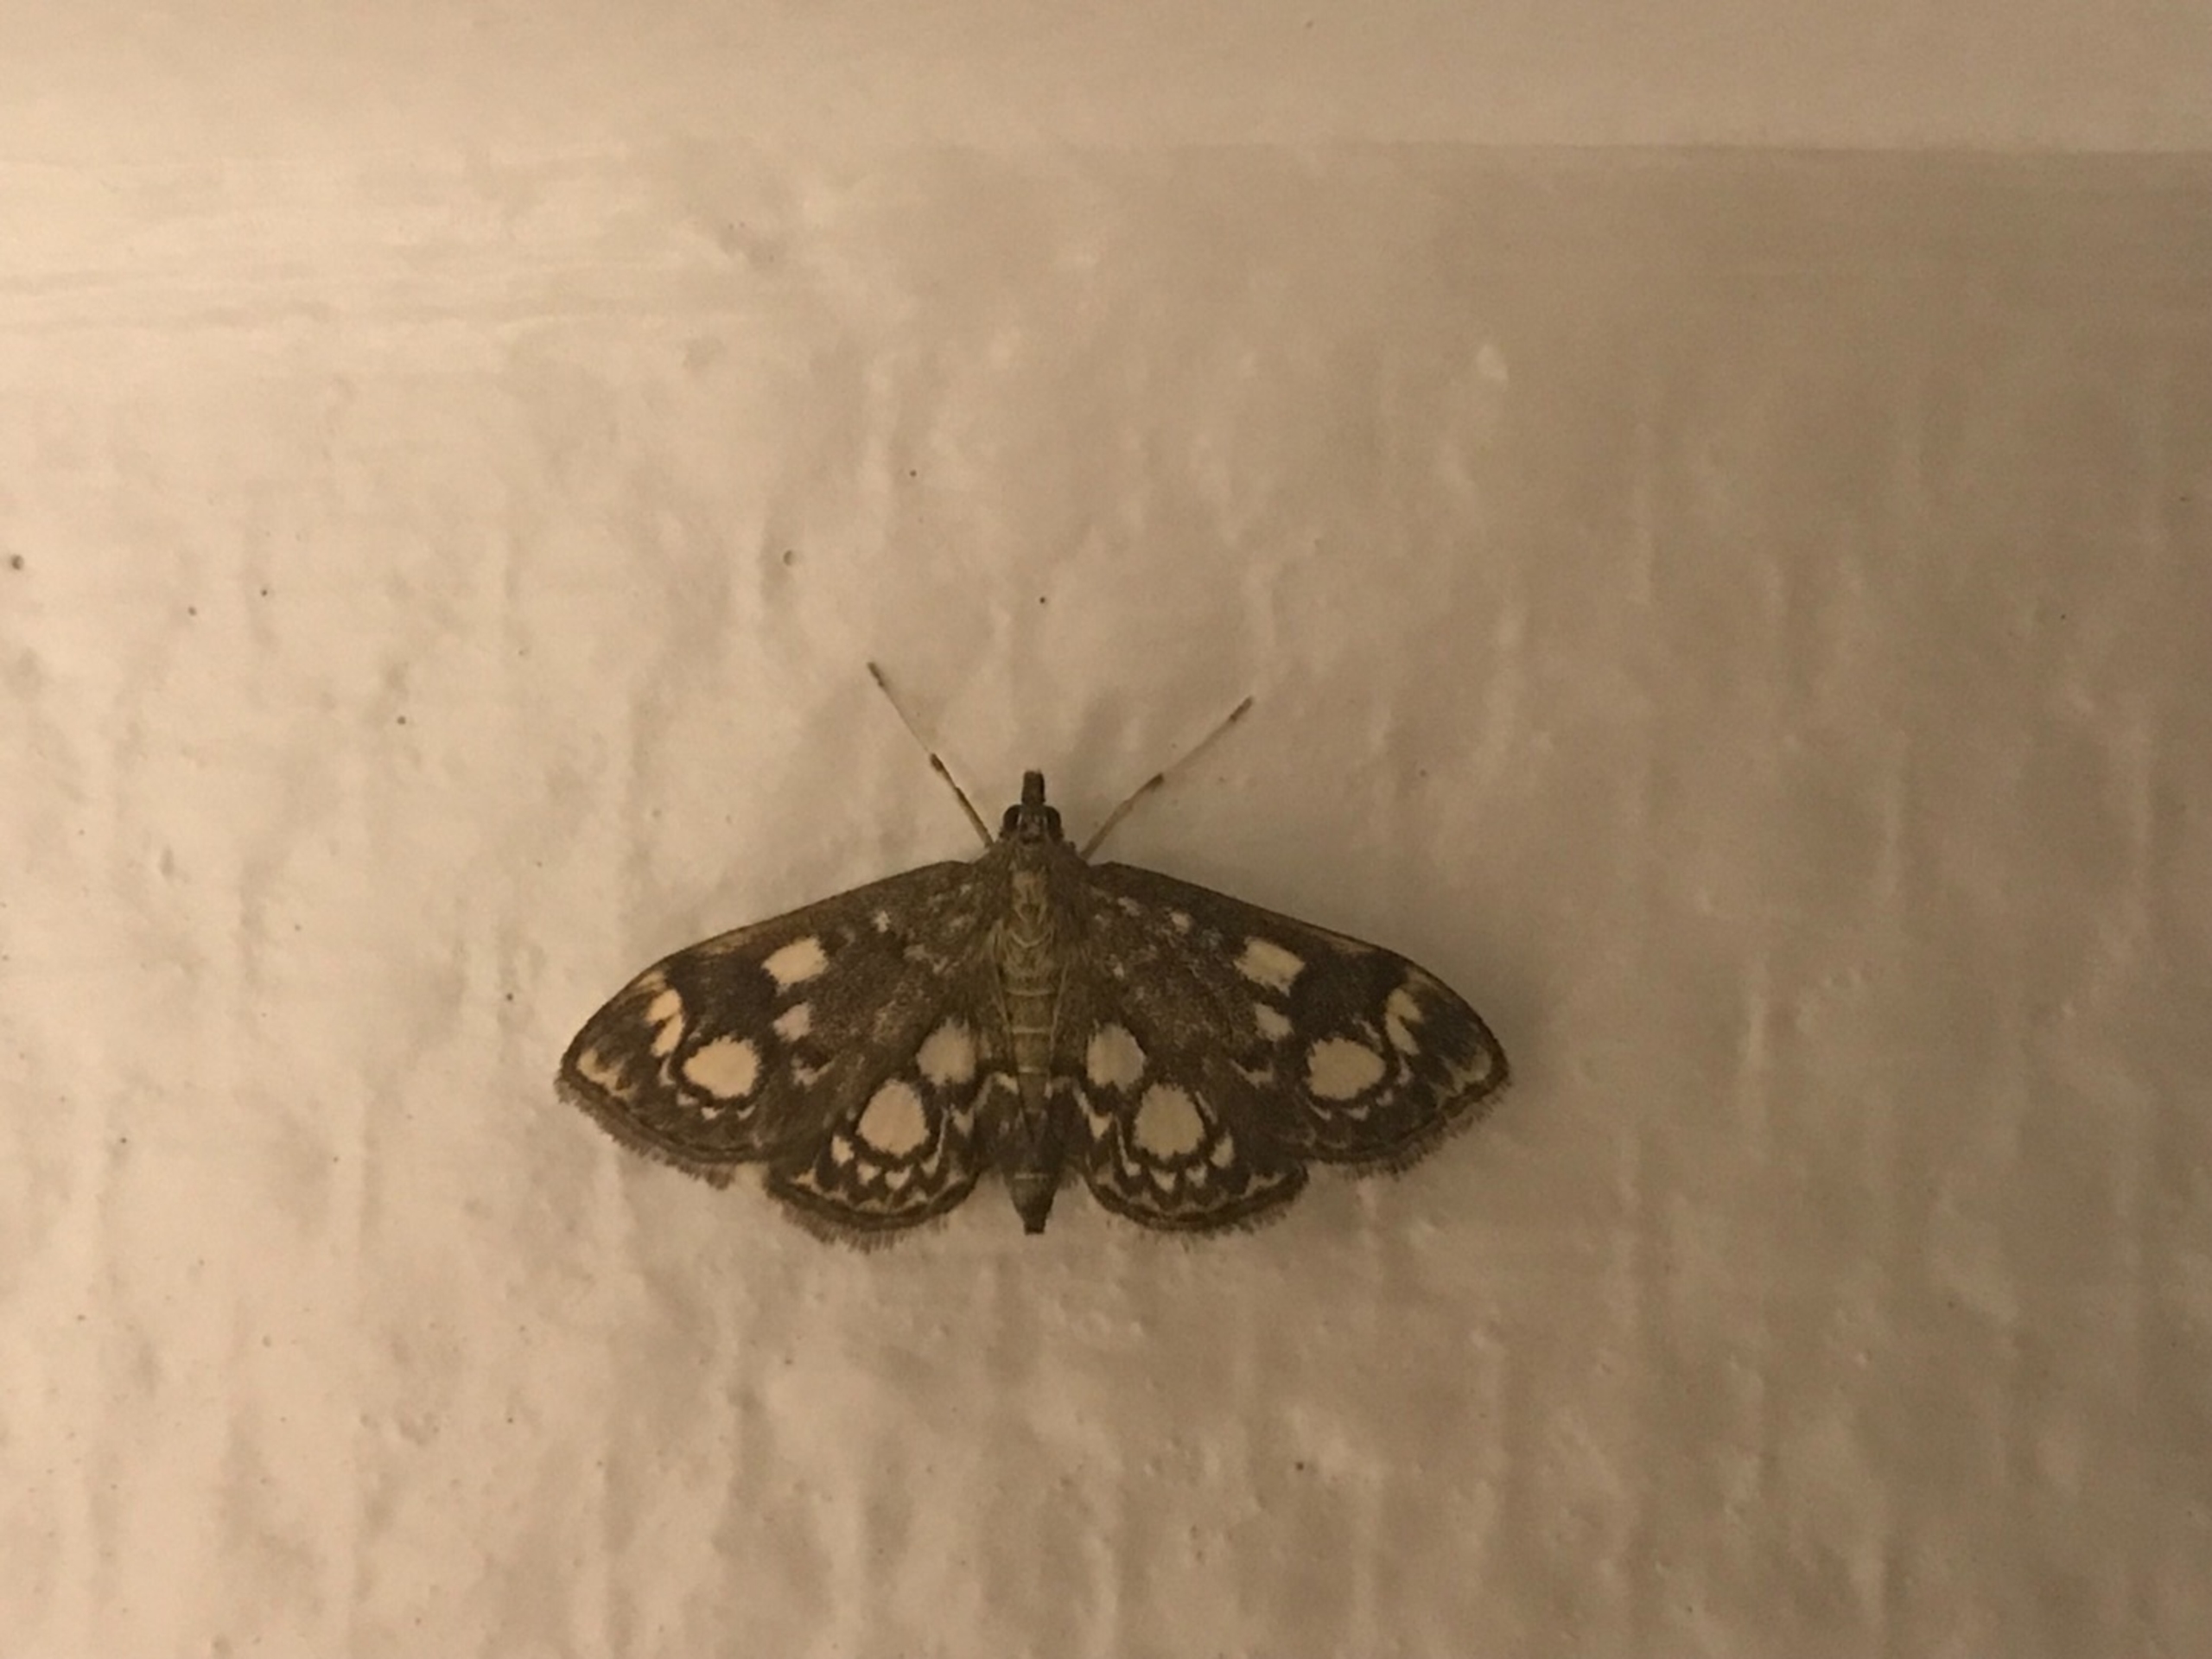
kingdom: Animalia
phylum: Arthropoda
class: Insecta
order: Lepidoptera
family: Crambidae
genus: Anania
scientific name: Anania coronata
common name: Hyldehalvmøl
